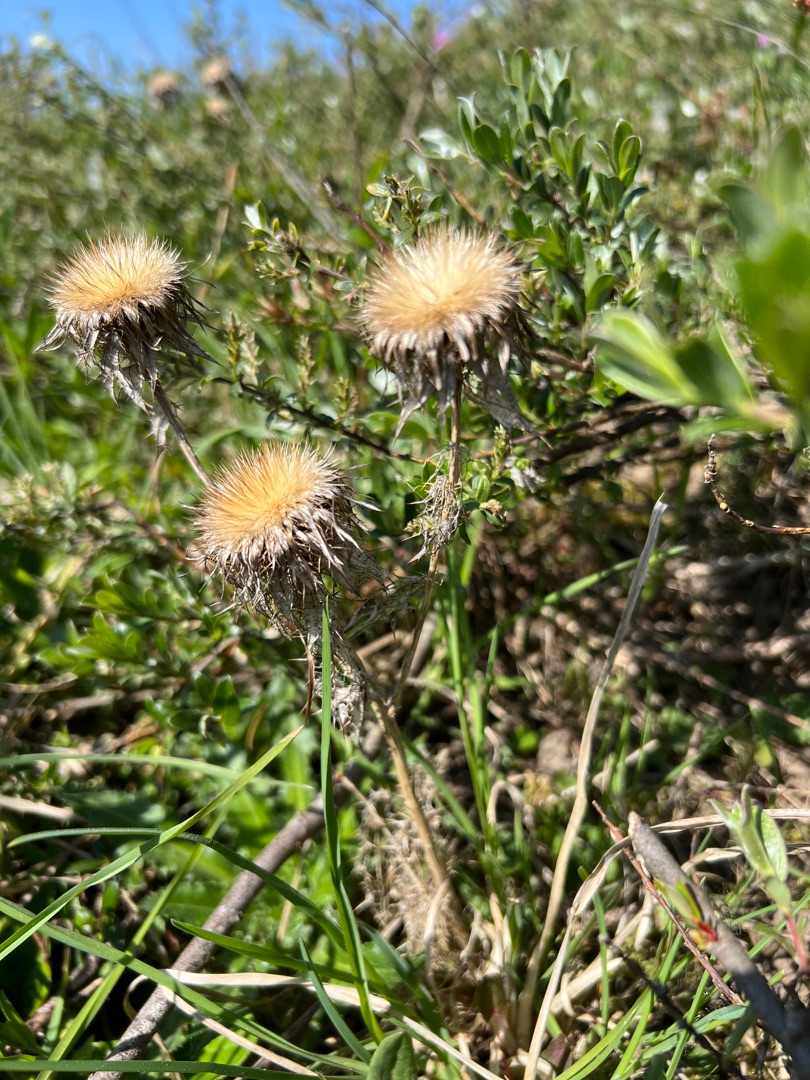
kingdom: Plantae
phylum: Tracheophyta
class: Magnoliopsida
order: Asterales
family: Asteraceae
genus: Carlina
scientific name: Carlina vulgaris
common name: Bakketidsel
